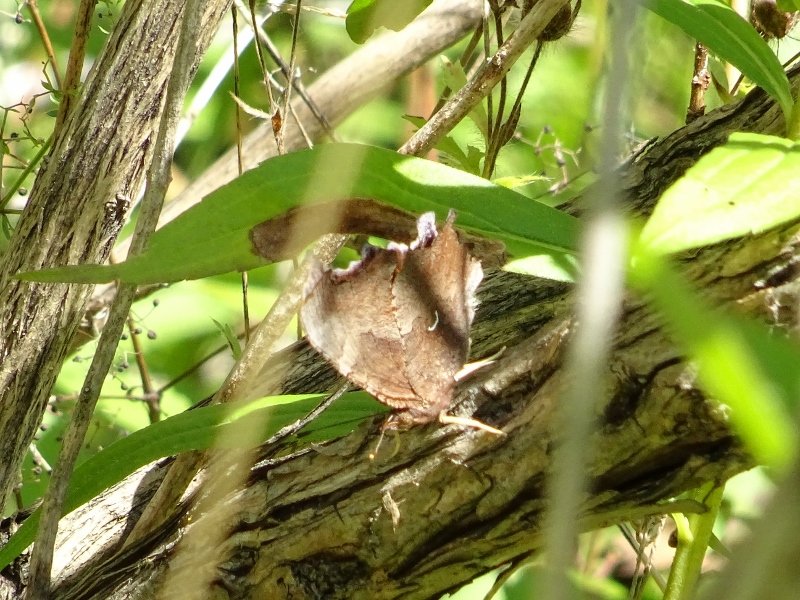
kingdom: Animalia
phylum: Arthropoda
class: Insecta
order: Lepidoptera
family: Nymphalidae
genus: Polygonia
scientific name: Polygonia comma
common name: Eastern Comma
